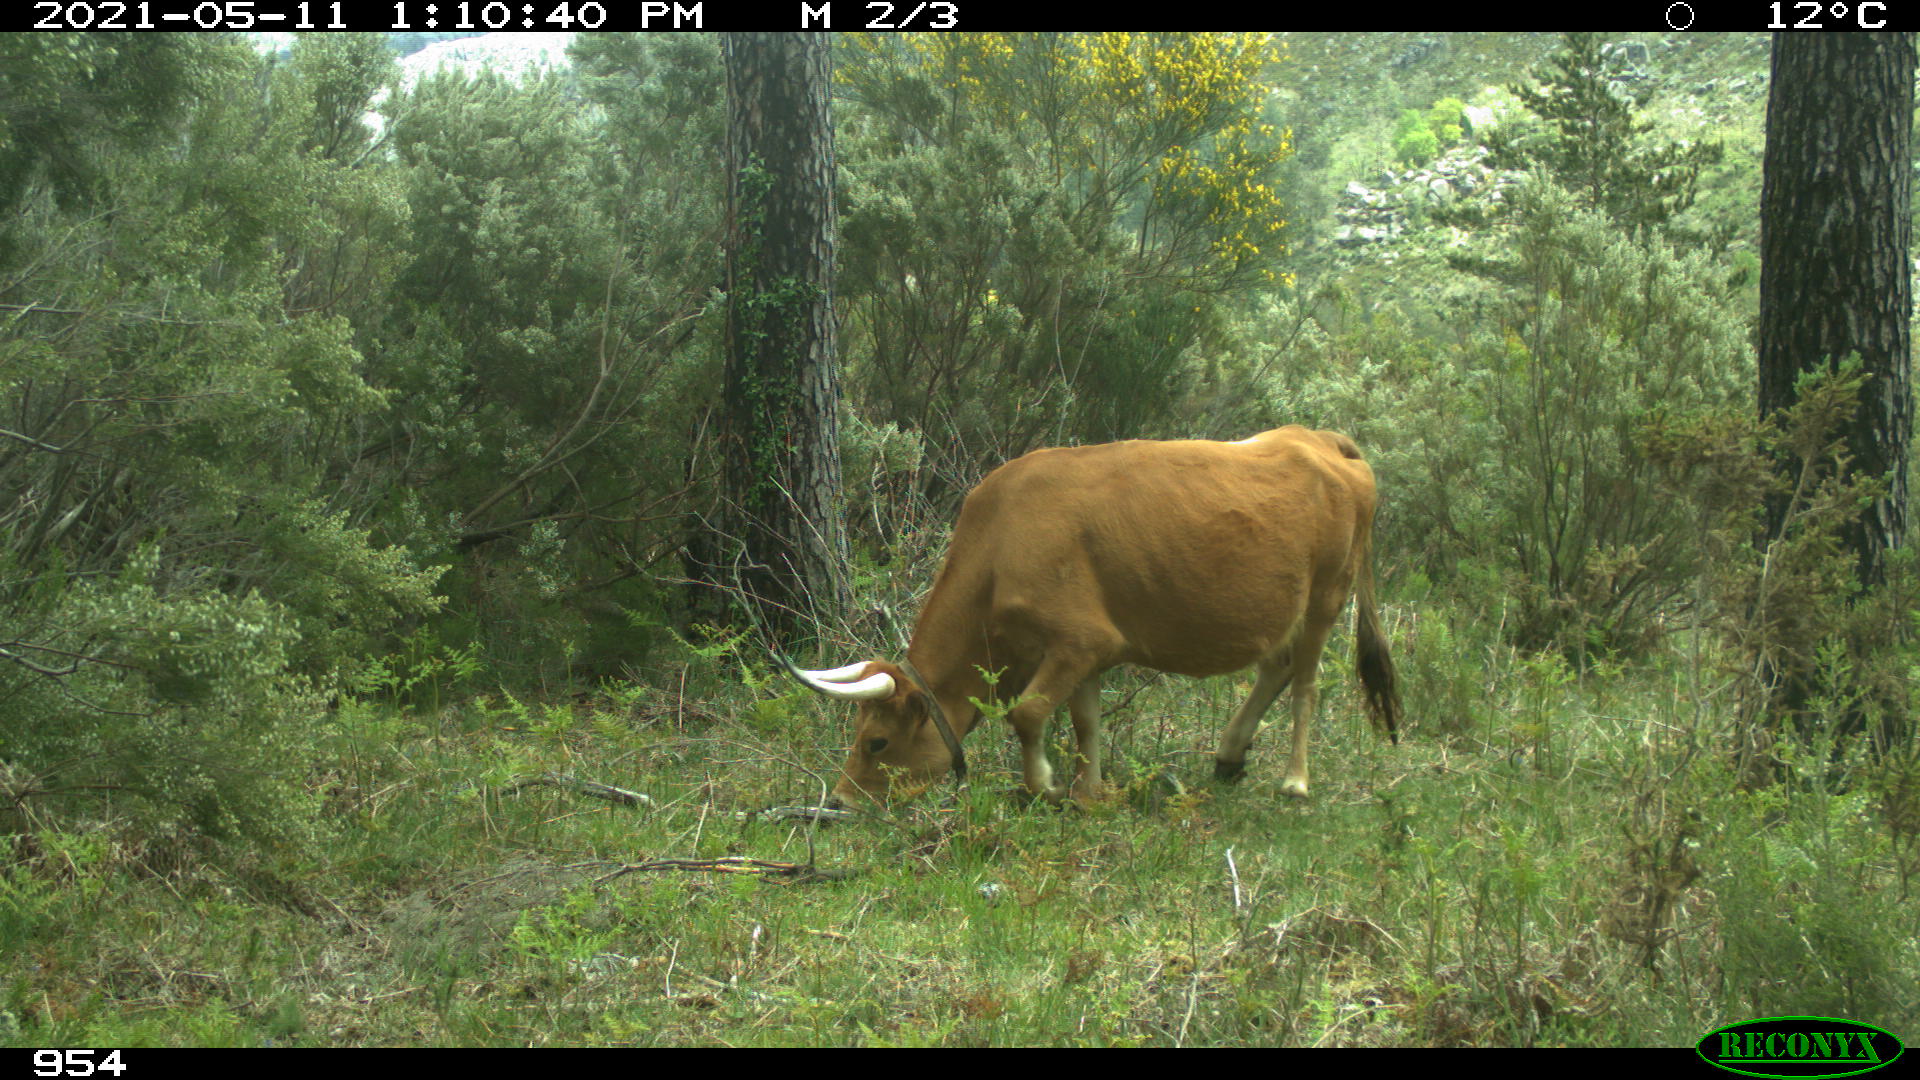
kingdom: Animalia
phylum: Chordata
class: Mammalia
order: Artiodactyla
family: Bovidae
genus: Bos
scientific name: Bos taurus
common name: Domesticated cattle
